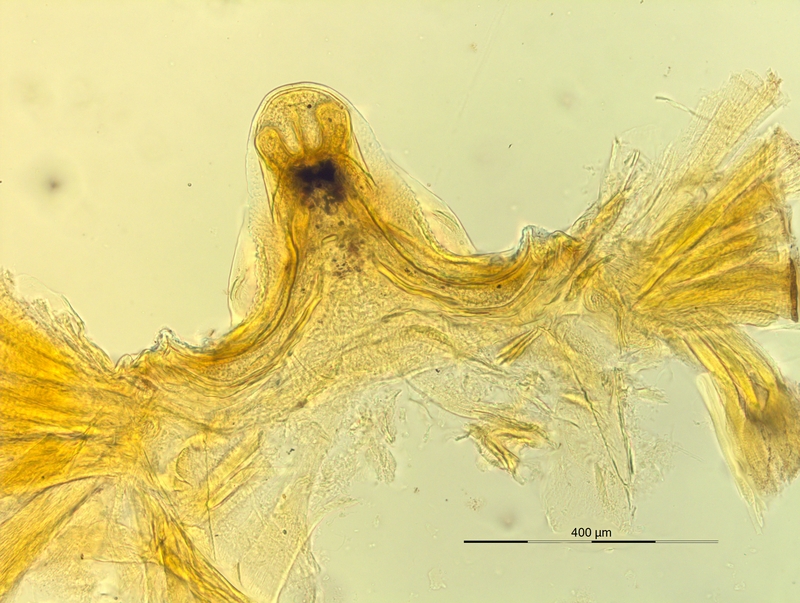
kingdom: Animalia
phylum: Arthropoda
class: Diplopoda
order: Chordeumatida
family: Craspedosomatidae
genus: Pyrgocyphosoma
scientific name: Pyrgocyphosoma longilamellatum
